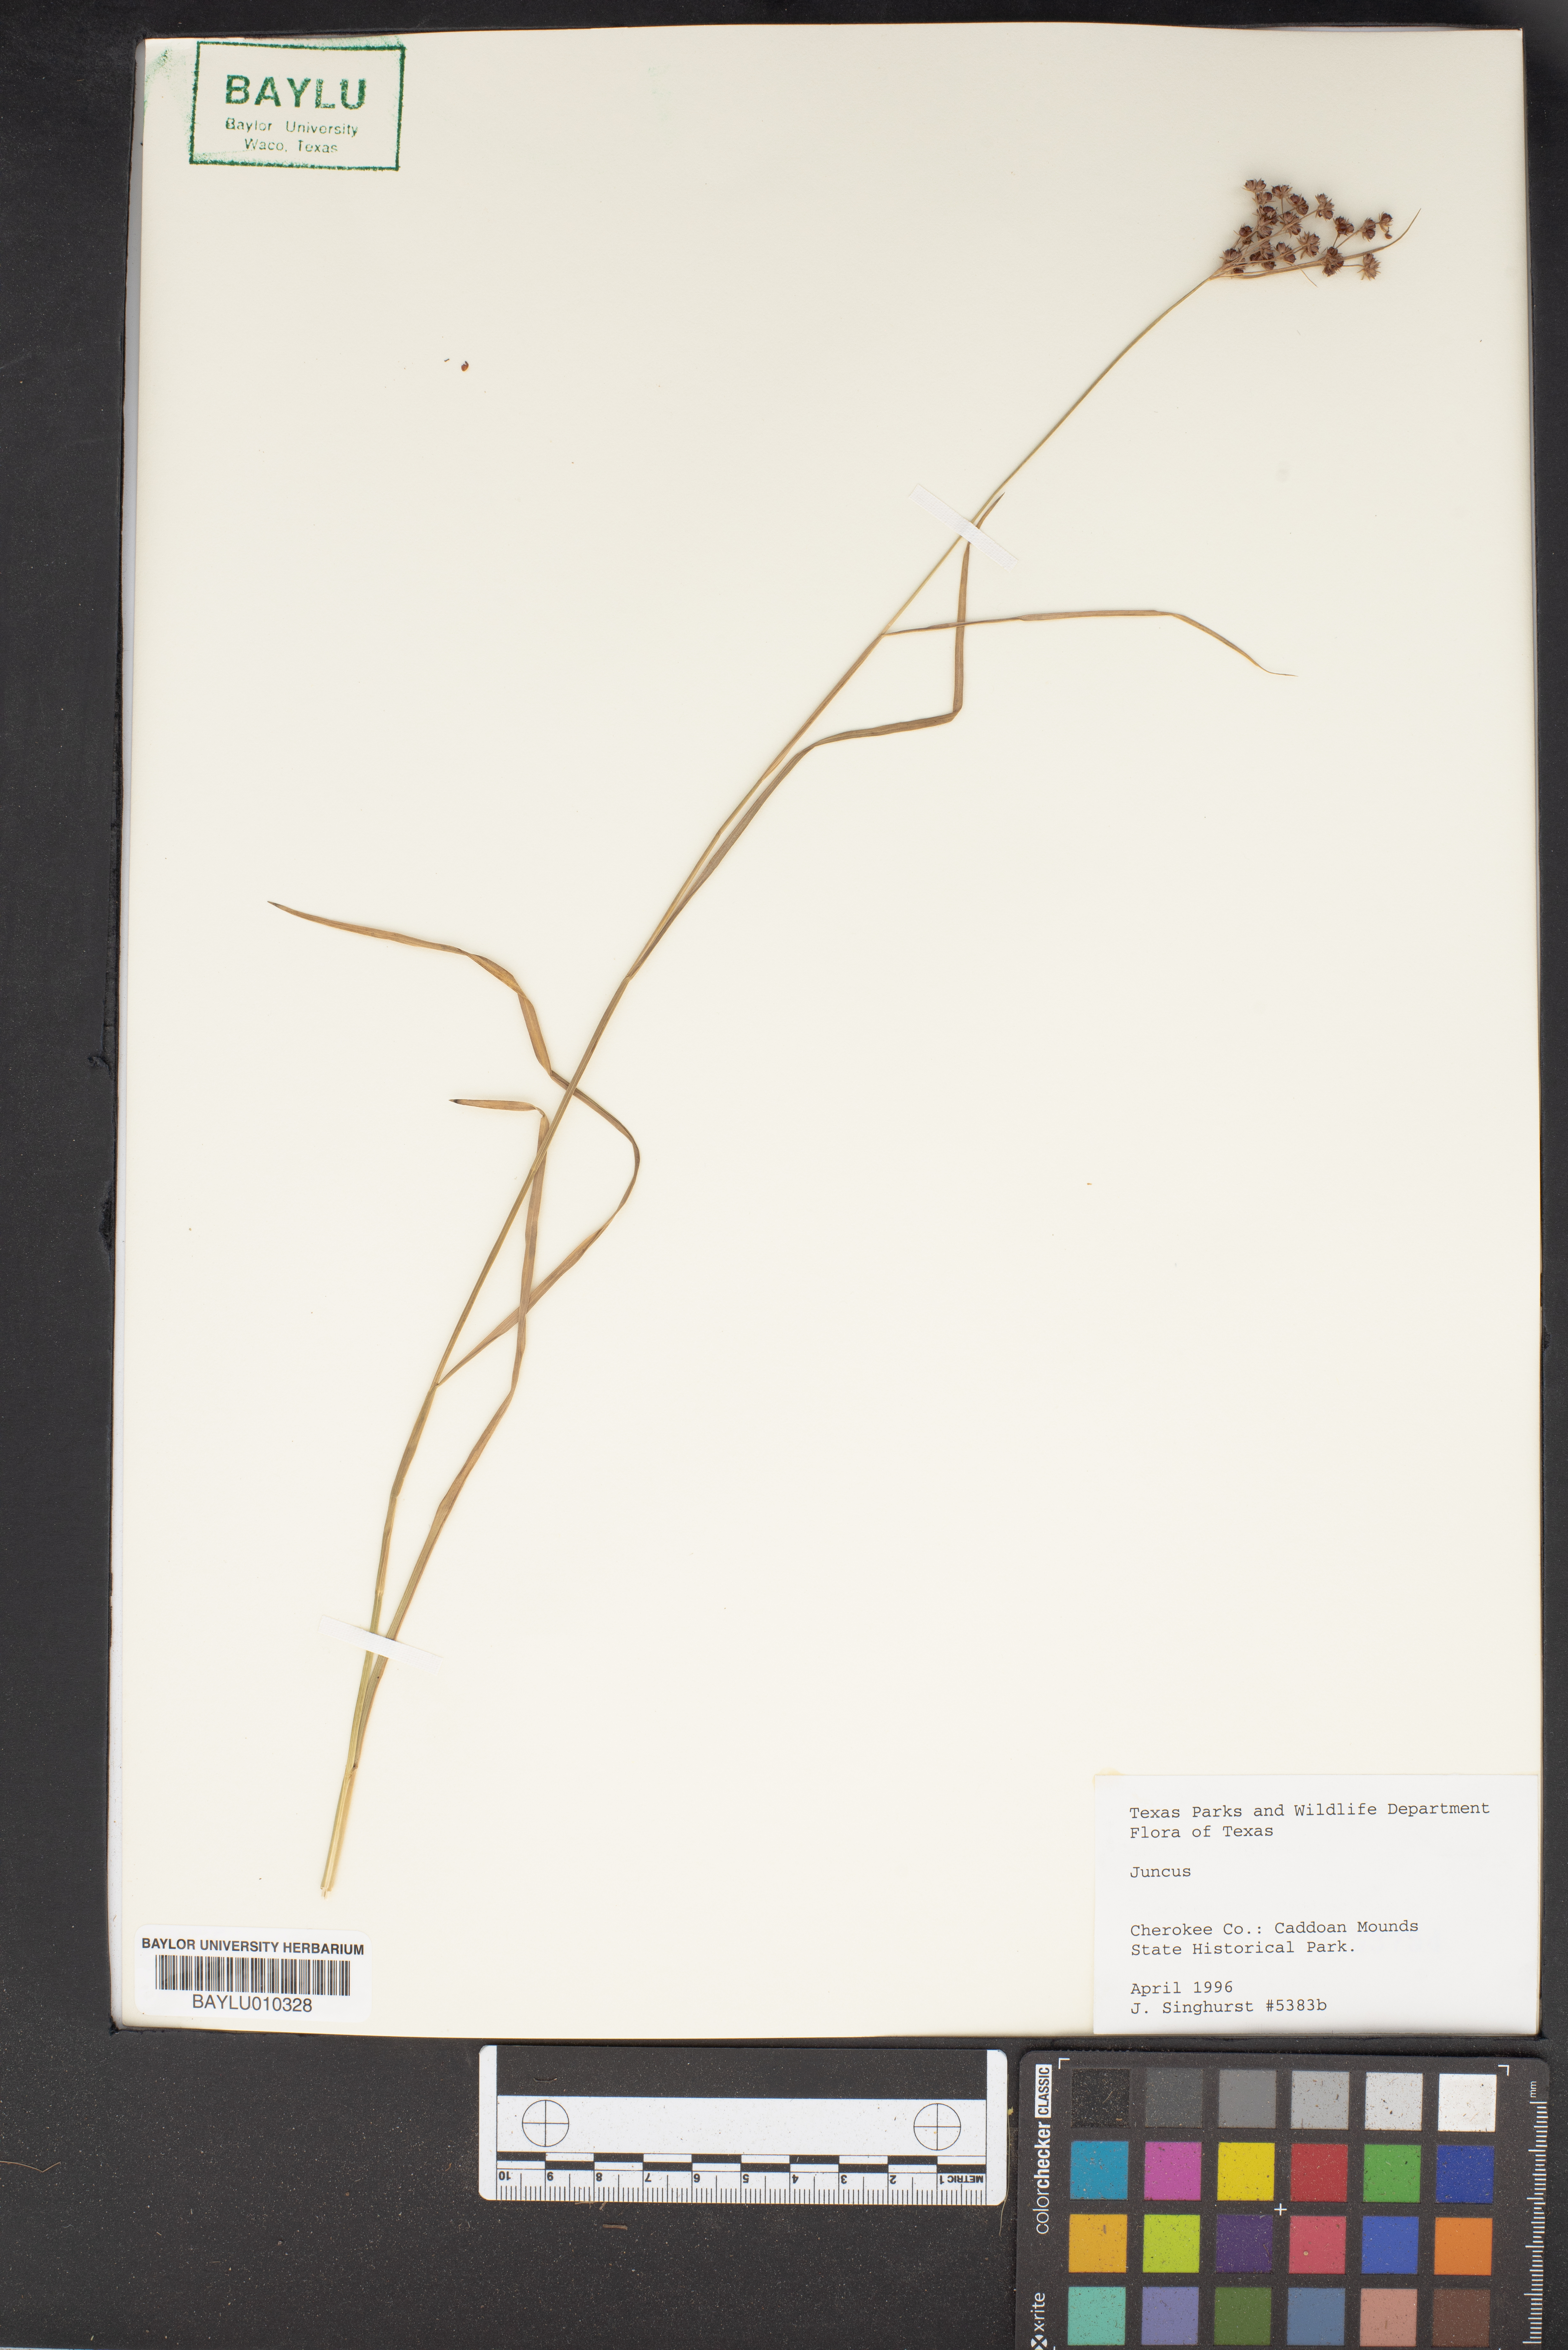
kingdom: Plantae
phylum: Tracheophyta
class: Liliopsida
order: Poales
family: Juncaceae
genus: Juncus
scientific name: Juncus
